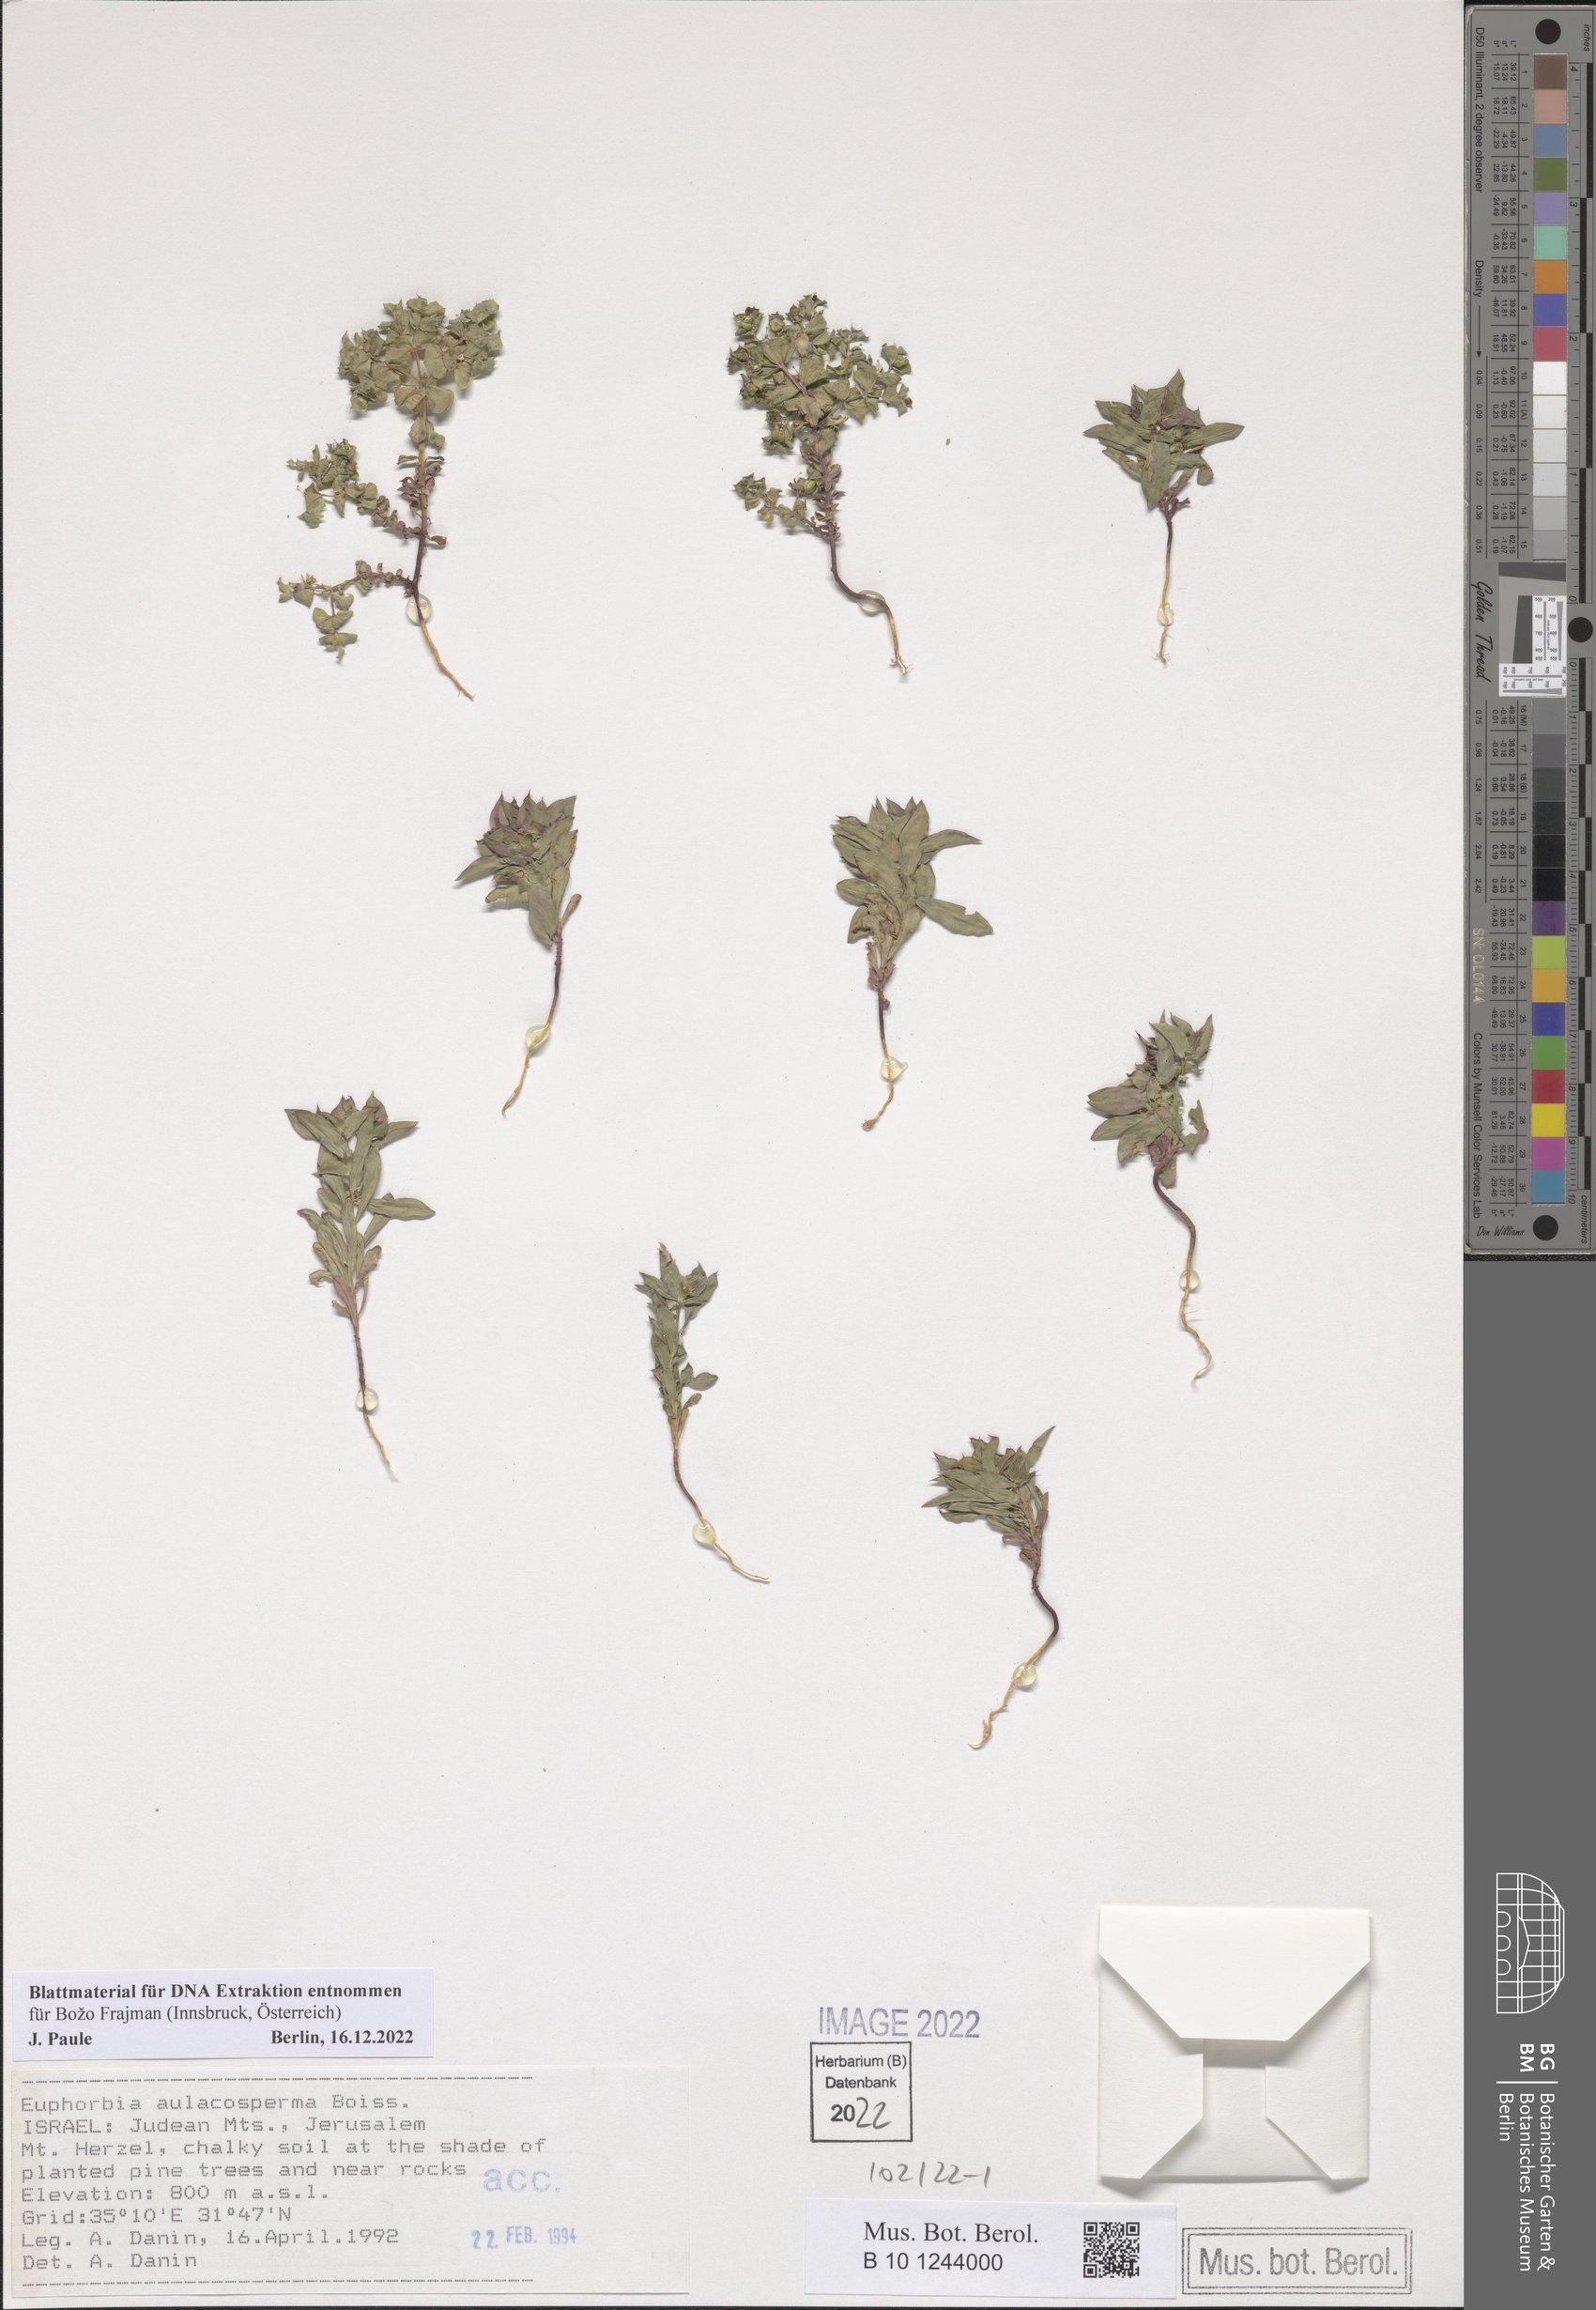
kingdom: Plantae
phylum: Tracheophyta
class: Magnoliopsida
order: Malpighiales
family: Euphorbiaceae
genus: Euphorbia
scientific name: Euphorbia aulacosperma
